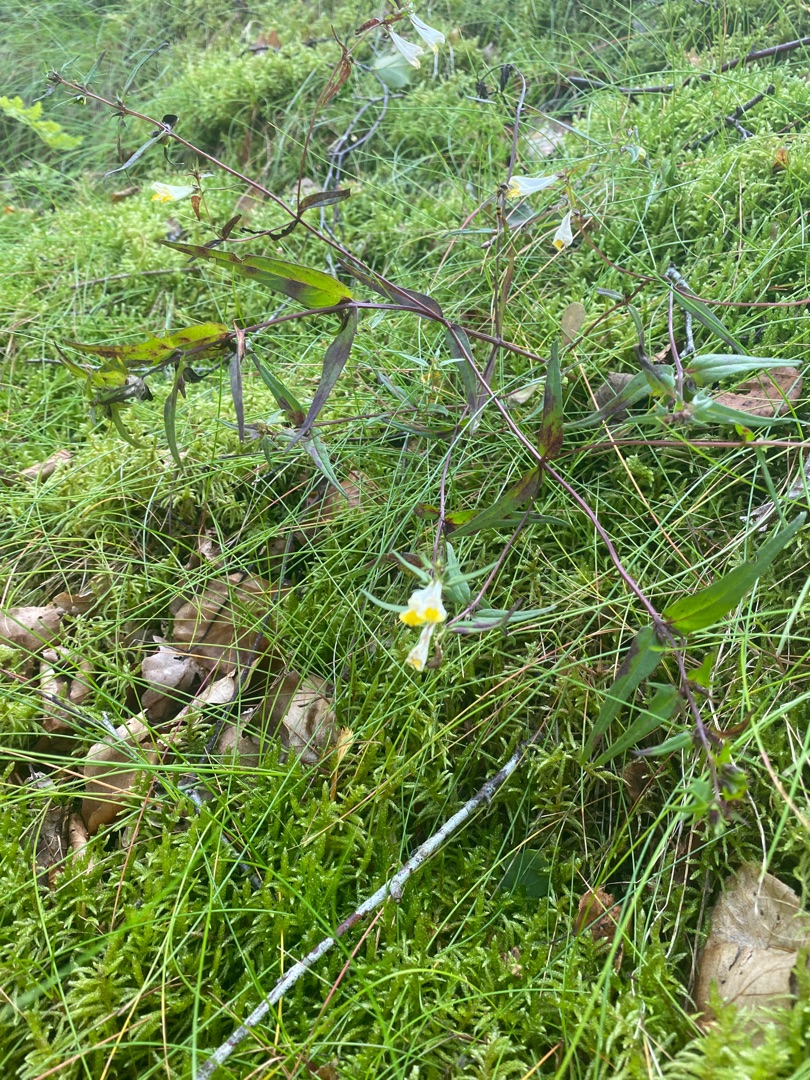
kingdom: Plantae
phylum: Tracheophyta
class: Magnoliopsida
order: Lamiales
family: Orobanchaceae
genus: Melampyrum
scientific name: Melampyrum pratense
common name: Almindelig kohvede
